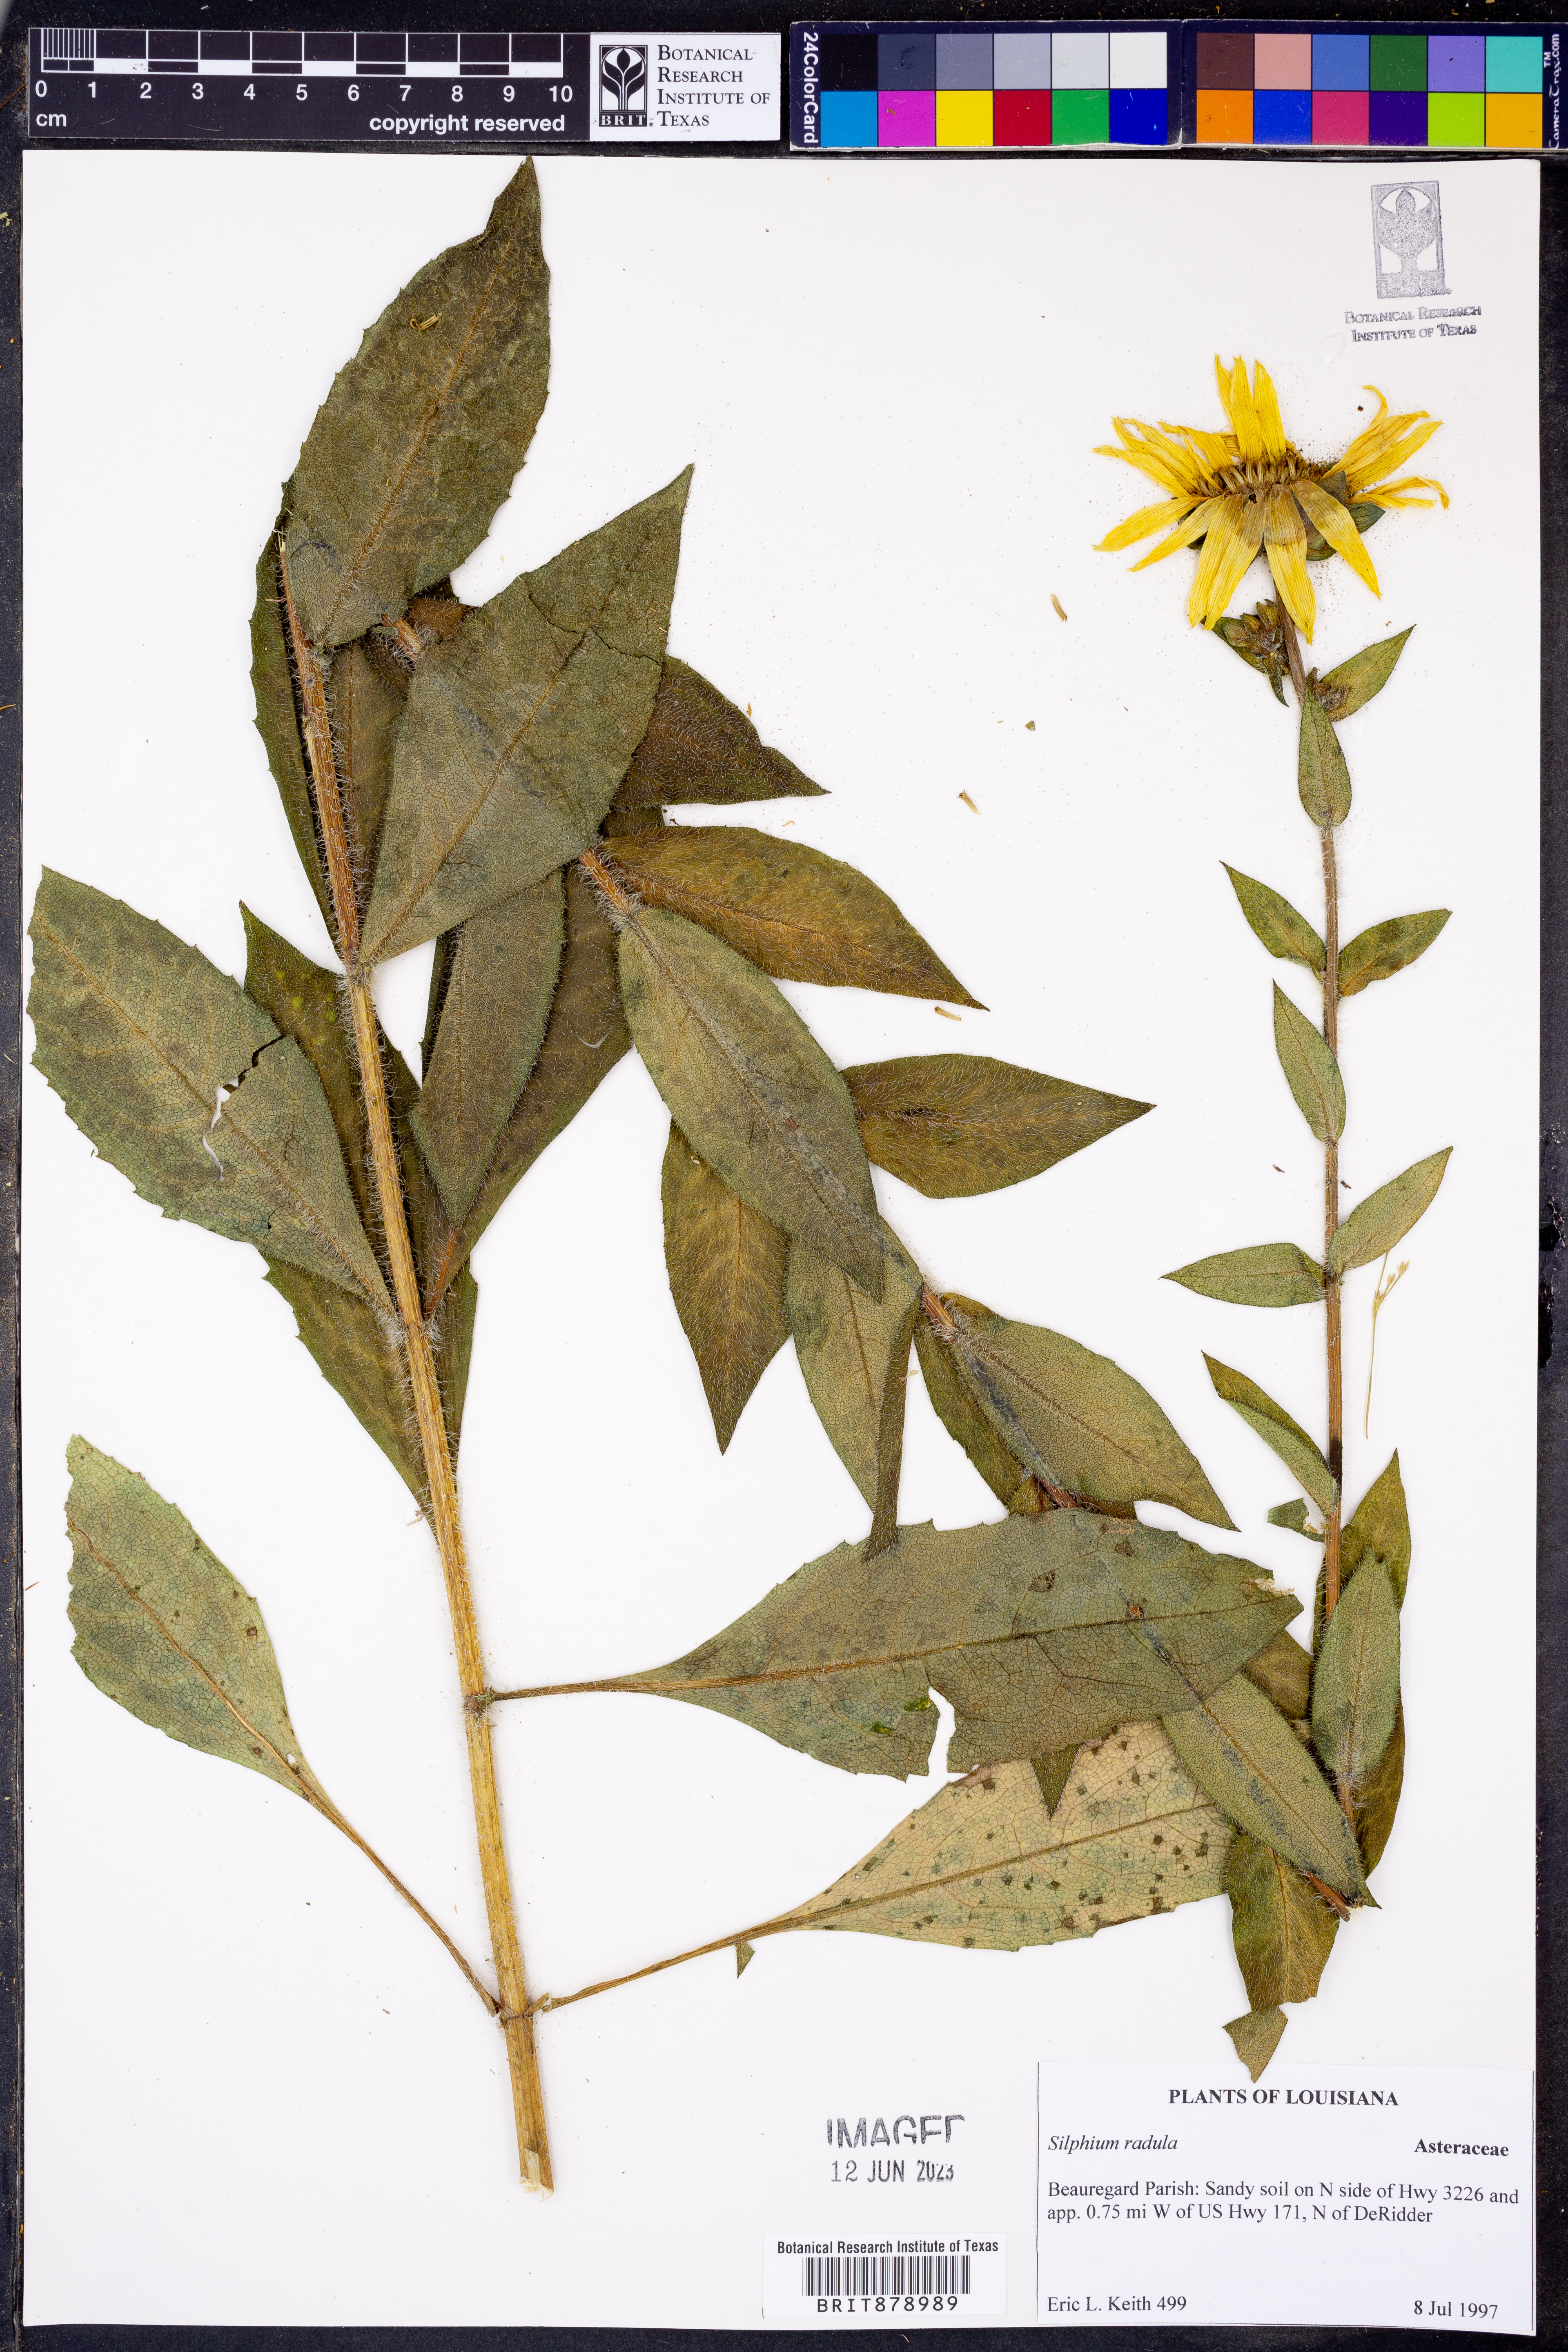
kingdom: Plantae
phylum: Tracheophyta
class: Magnoliopsida
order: Asterales
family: Asteraceae
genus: Silphium
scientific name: Silphium radula
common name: Roughleaf rosinweed
